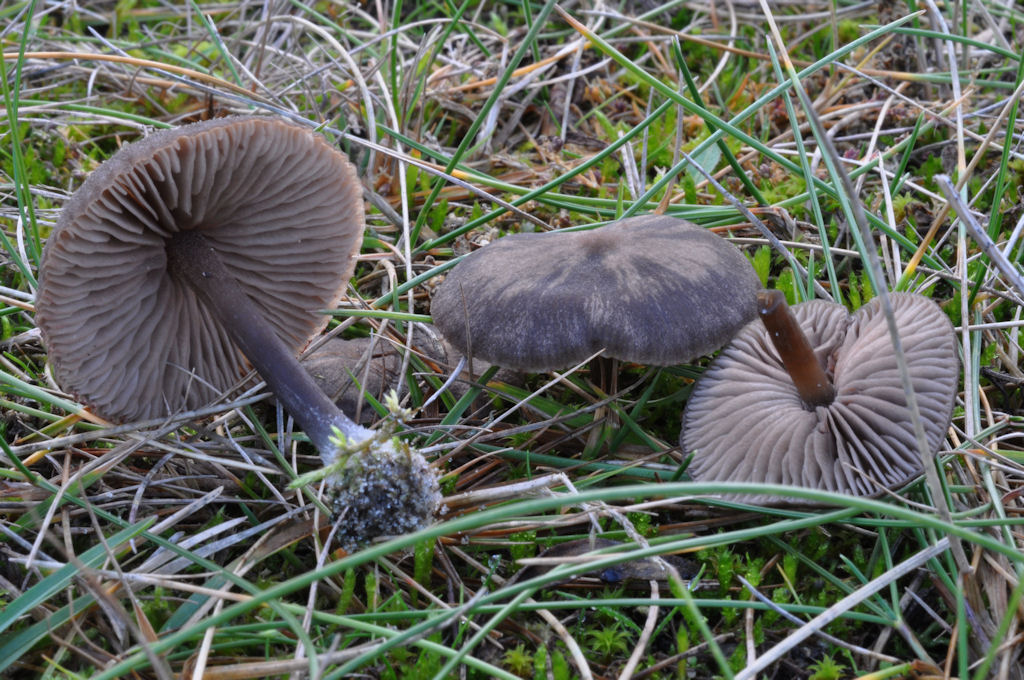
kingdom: Fungi
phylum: Basidiomycota
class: Agaricomycetes
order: Agaricales
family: Entolomataceae
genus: Entoloma
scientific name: Entoloma clandestinum
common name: tykbladet rødblad
